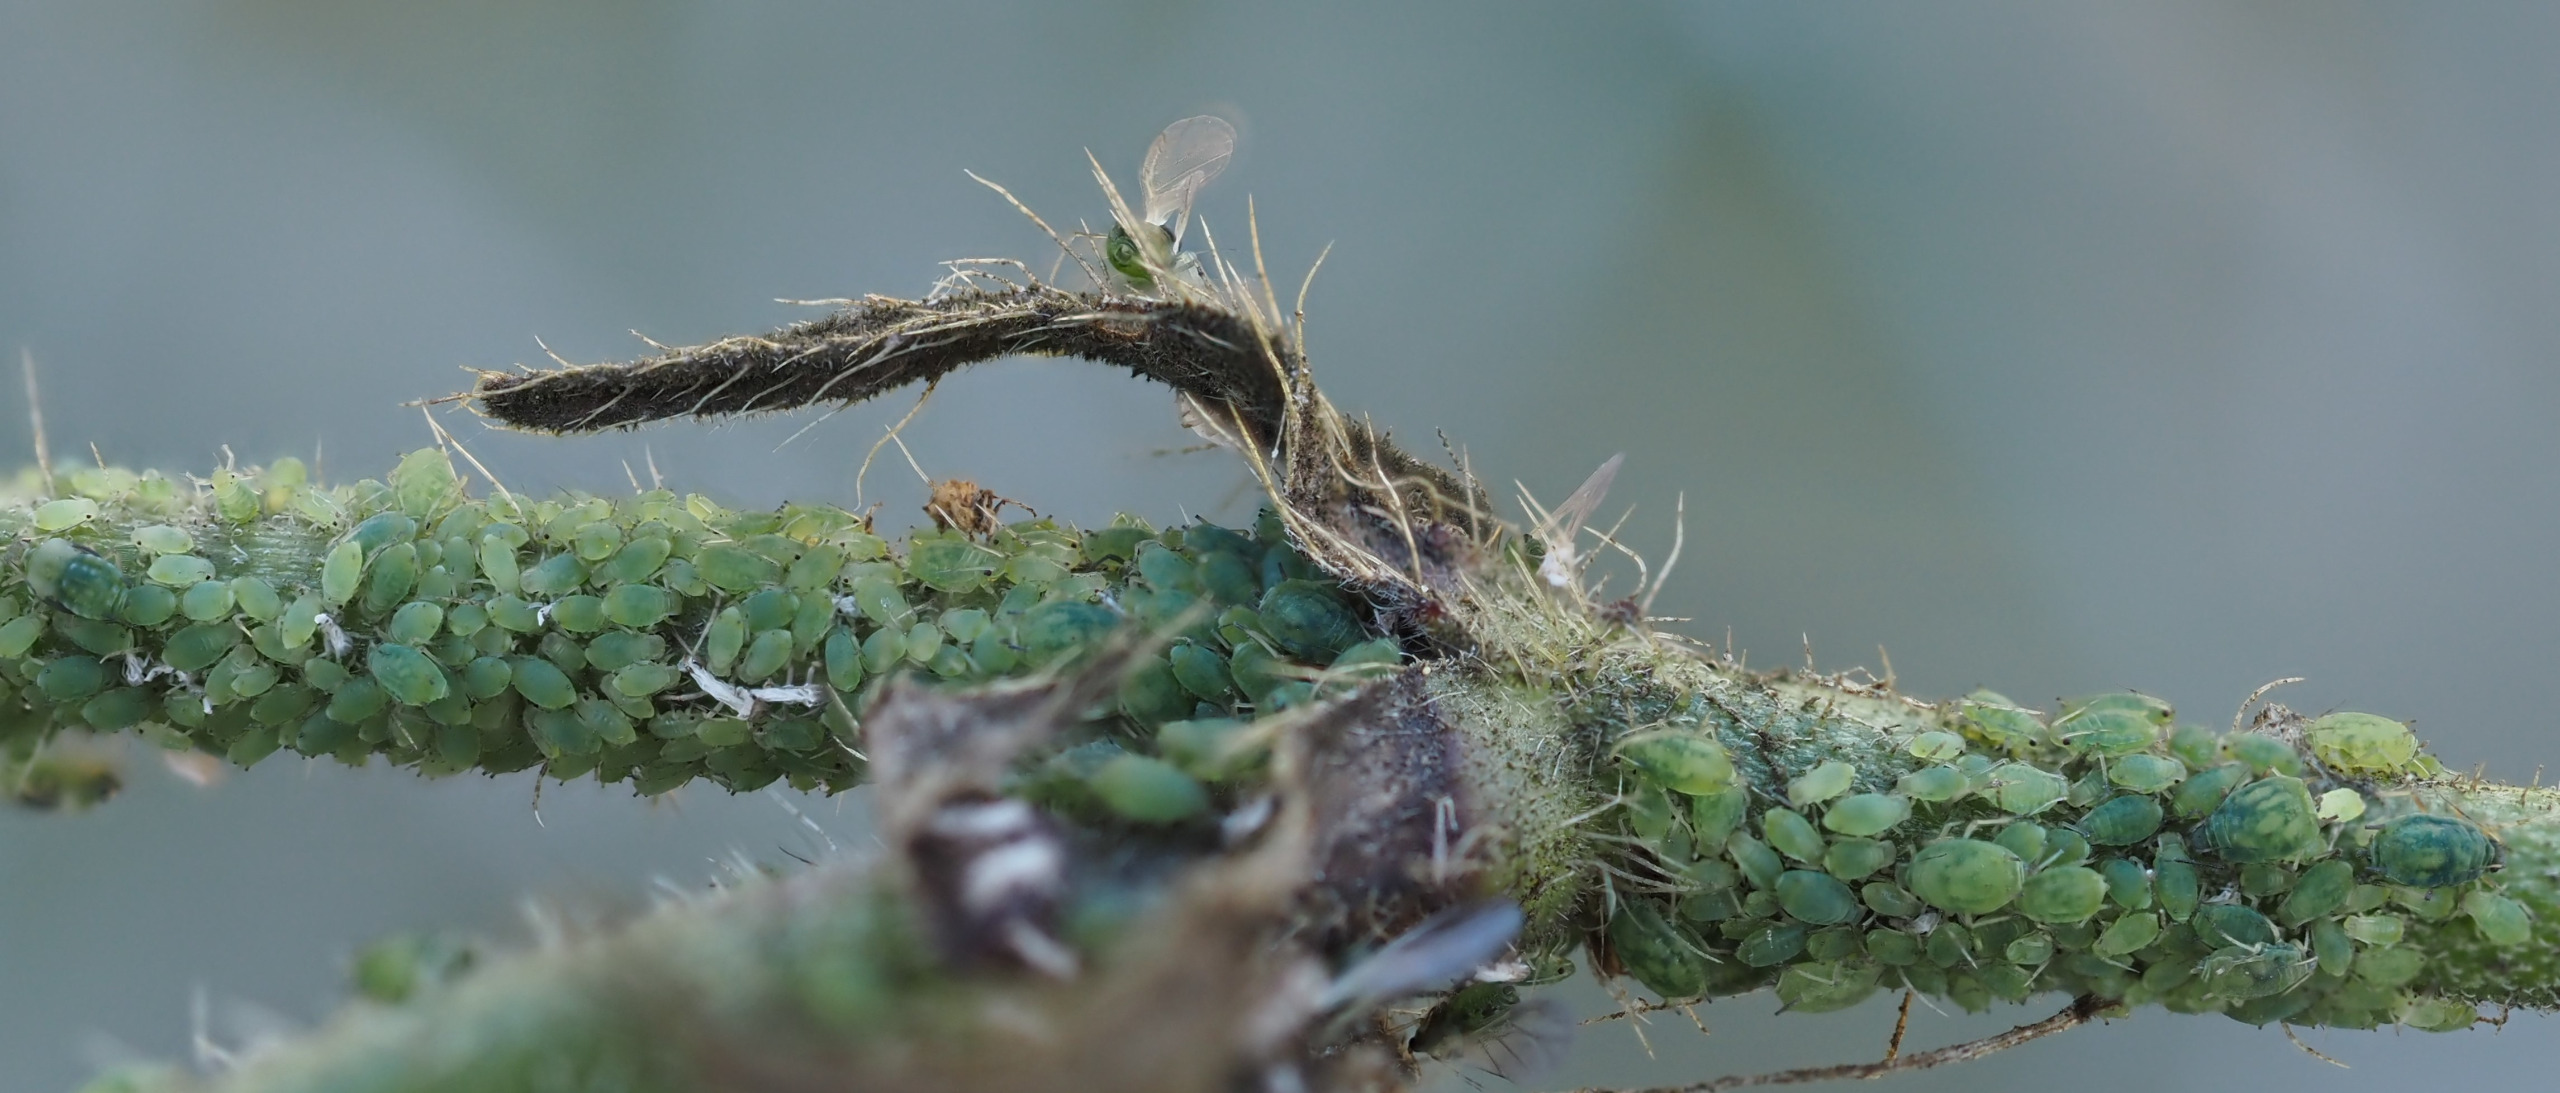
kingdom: Animalia
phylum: Arthropoda
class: Insecta
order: Hemiptera
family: Aphididae
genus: Aphis
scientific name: Aphis confusa
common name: Lille blåhatbladlus
